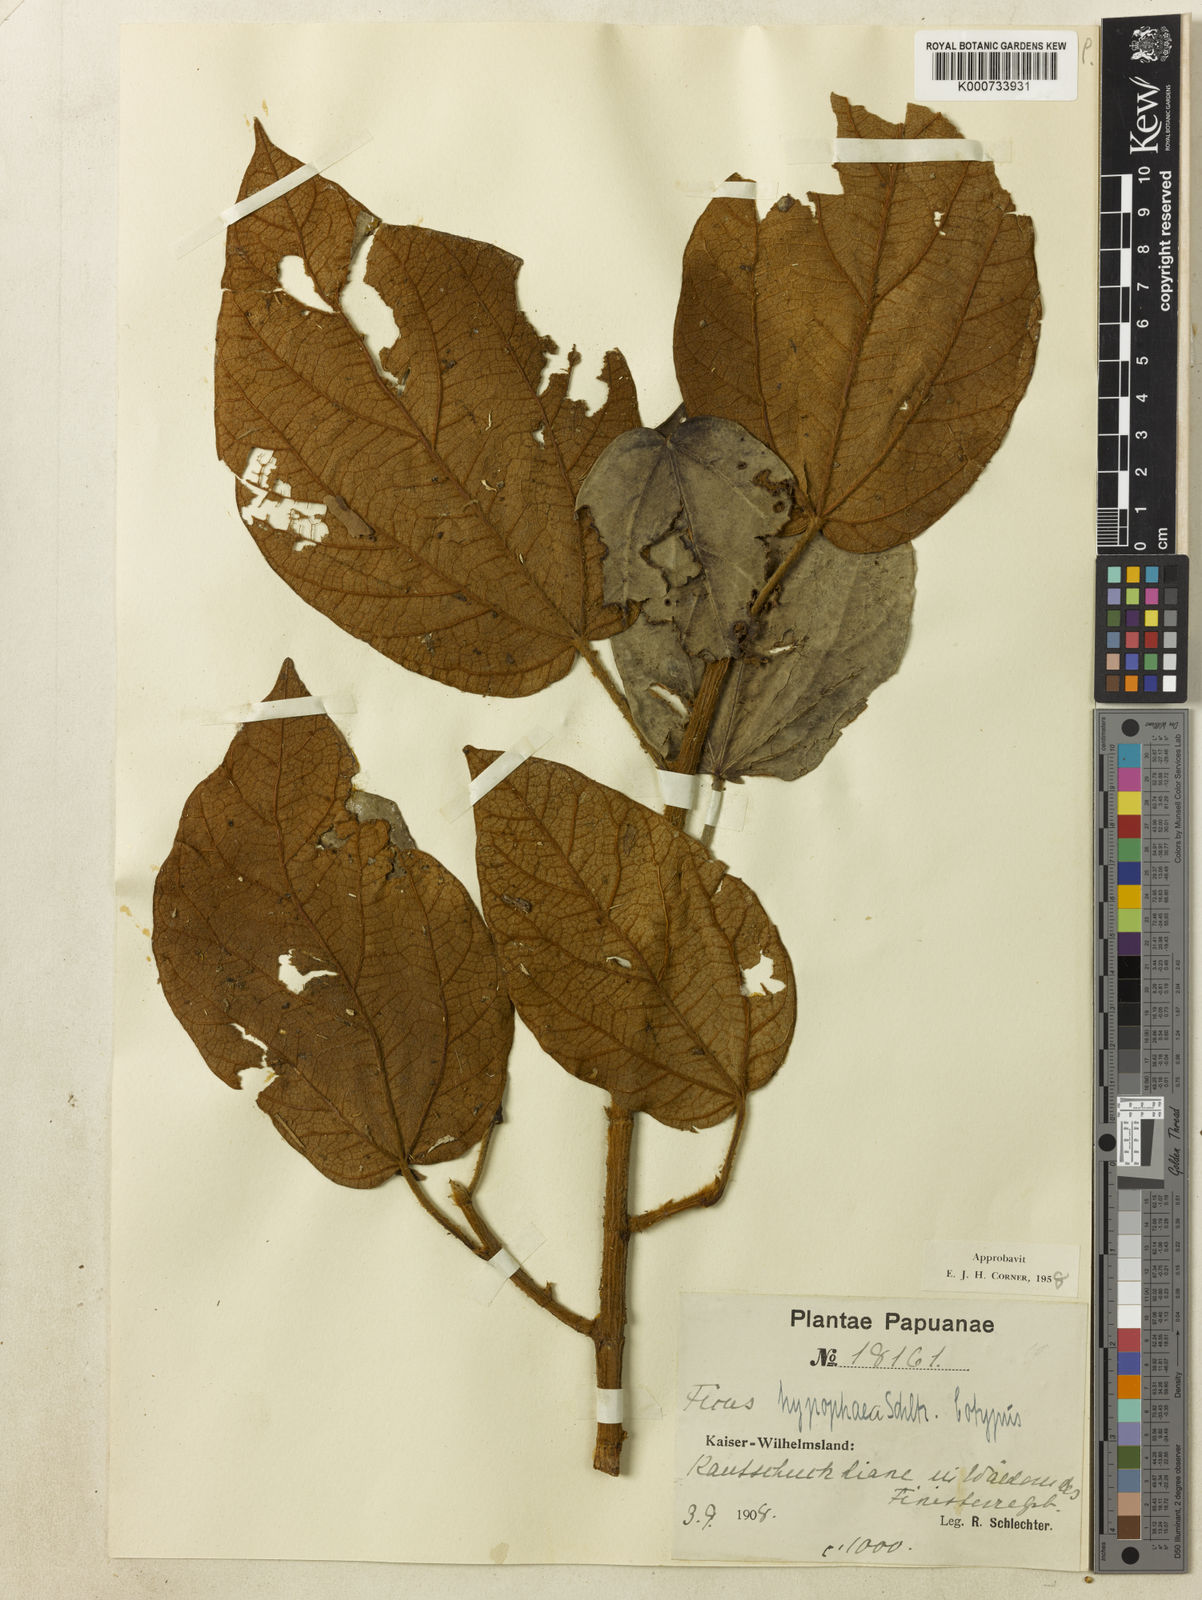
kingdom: Plantae
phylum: Tracheophyta
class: Magnoliopsida
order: Rosales
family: Moraceae
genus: Ficus
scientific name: Ficus hypophaea
